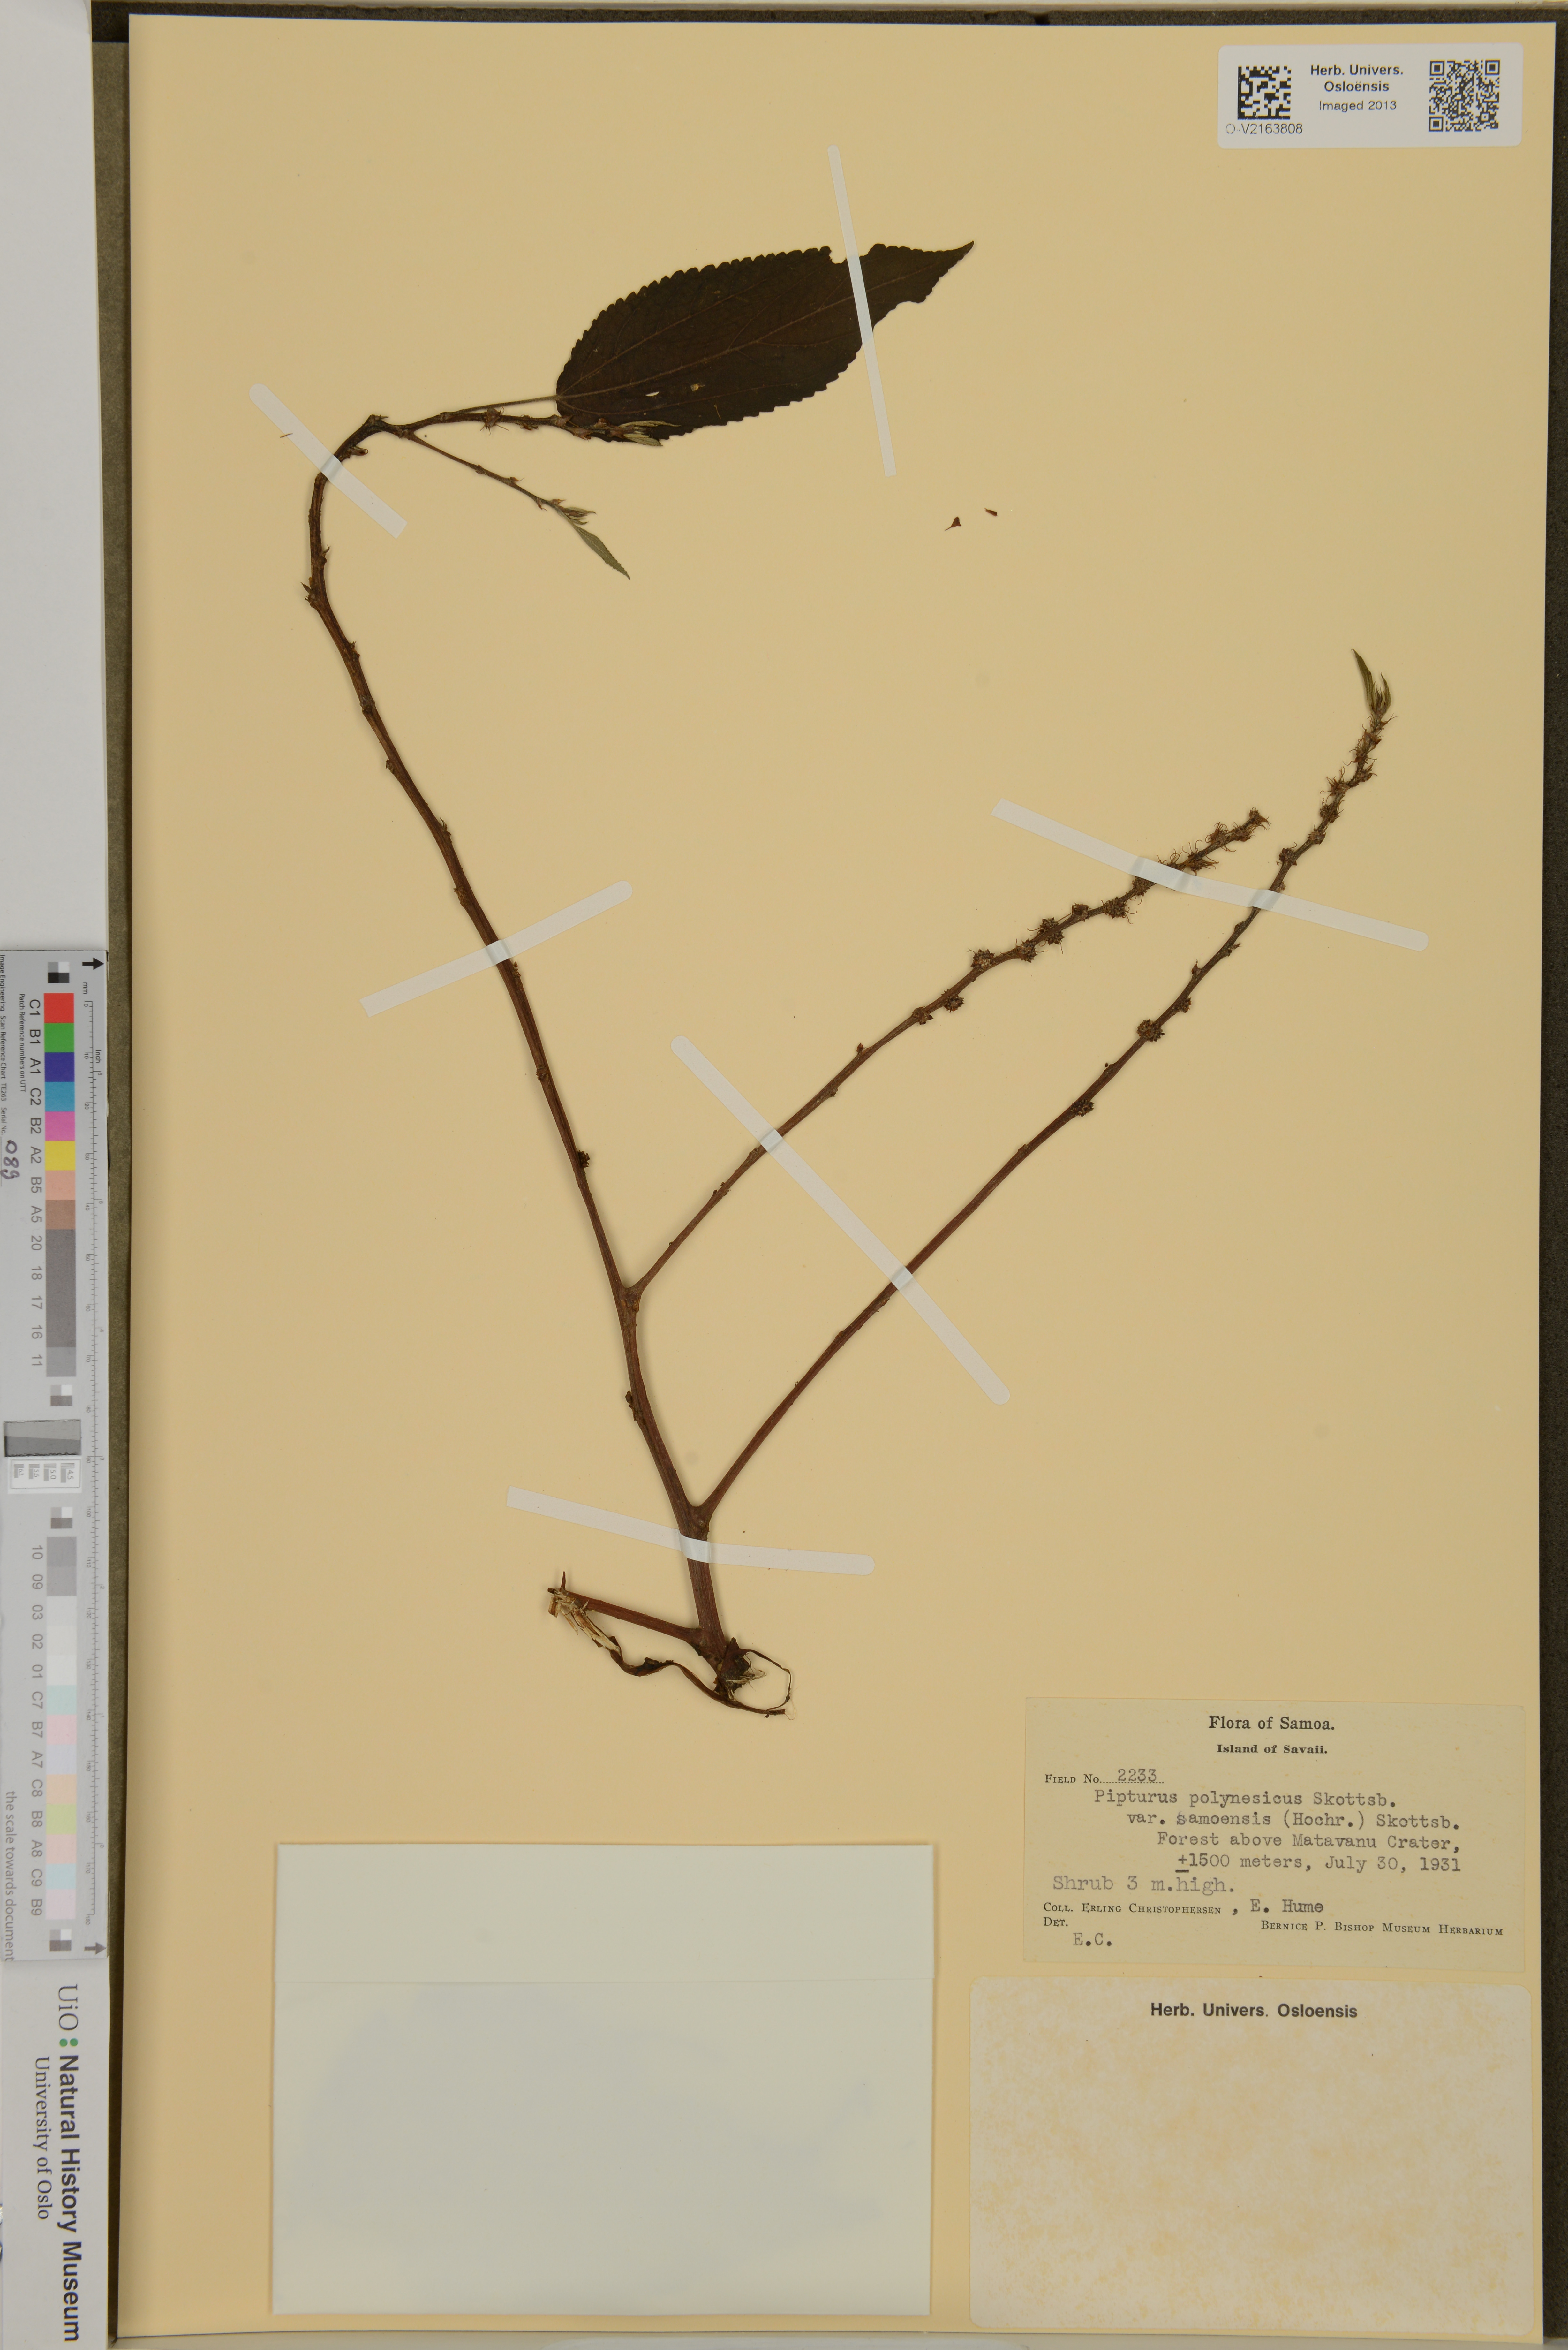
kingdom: Plantae
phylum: Tracheophyta
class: Magnoliopsida
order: Rosales
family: Urticaceae
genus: Pipturus
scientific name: Pipturus polynesicus
